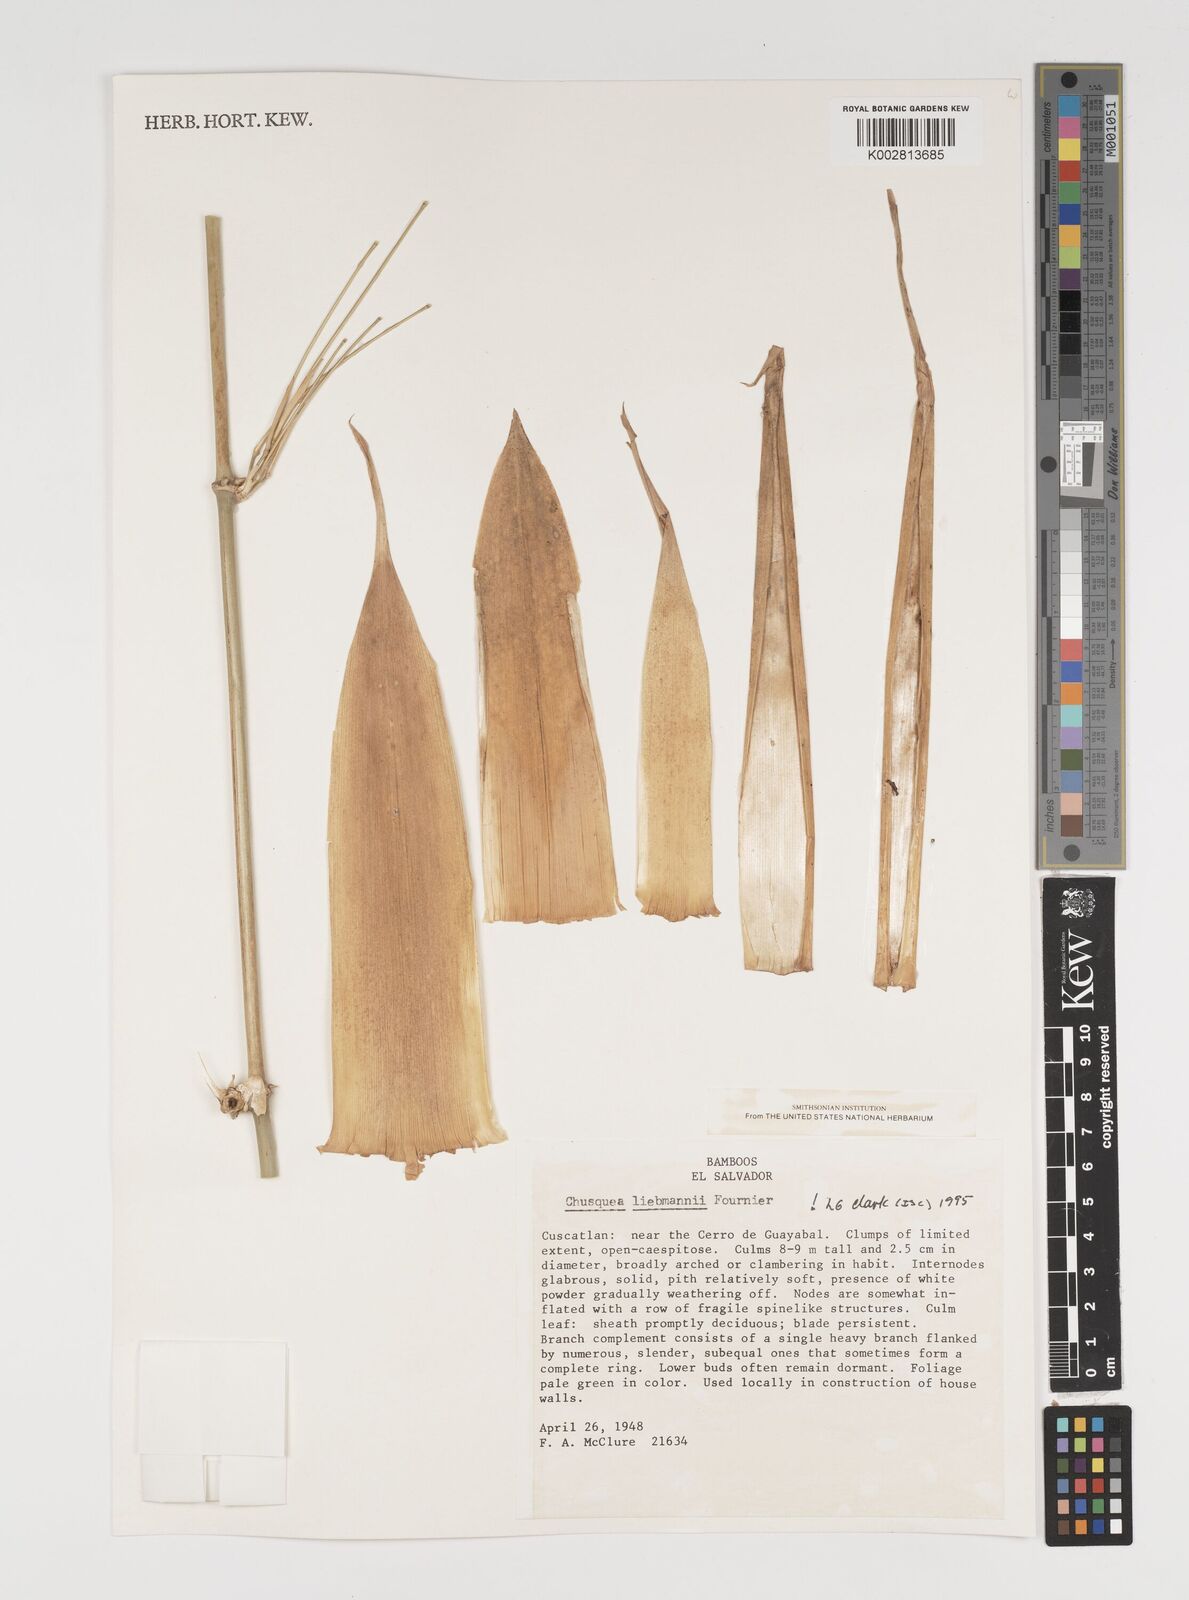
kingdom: Plantae
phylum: Tracheophyta
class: Liliopsida
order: Poales
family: Poaceae
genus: Chusquea
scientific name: Chusquea liebmannii
